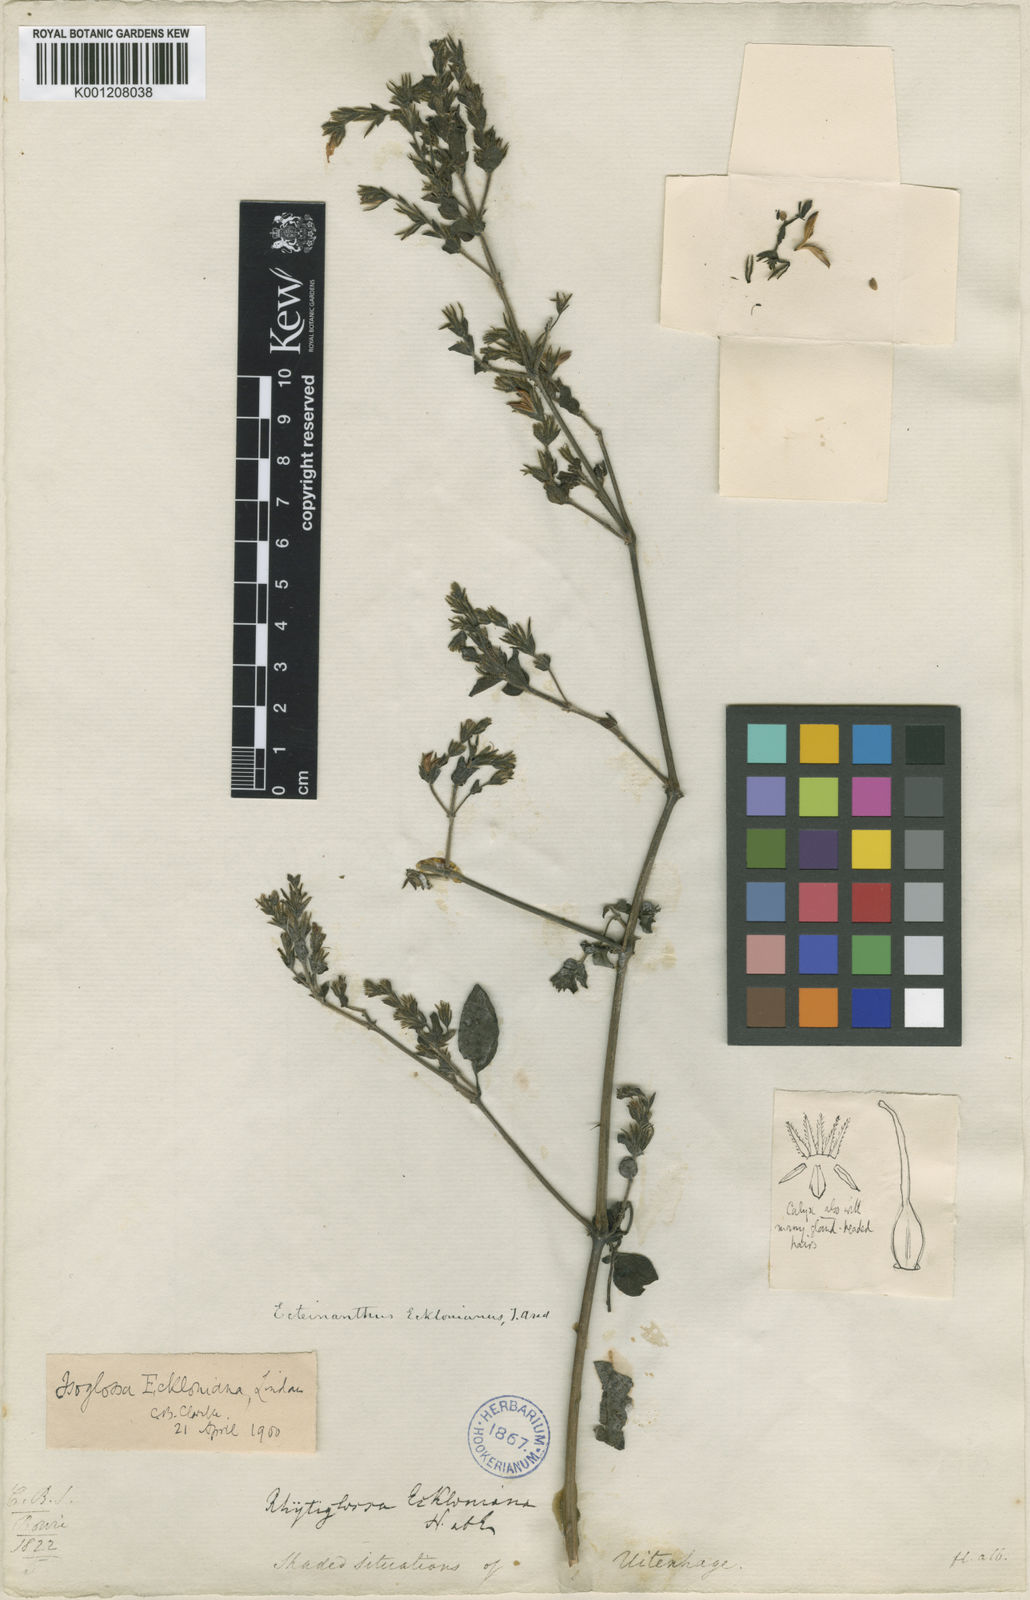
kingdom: Plantae
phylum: Tracheophyta
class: Magnoliopsida
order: Lamiales
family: Acanthaceae
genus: Isoglossa
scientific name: Isoglossa origanoides
